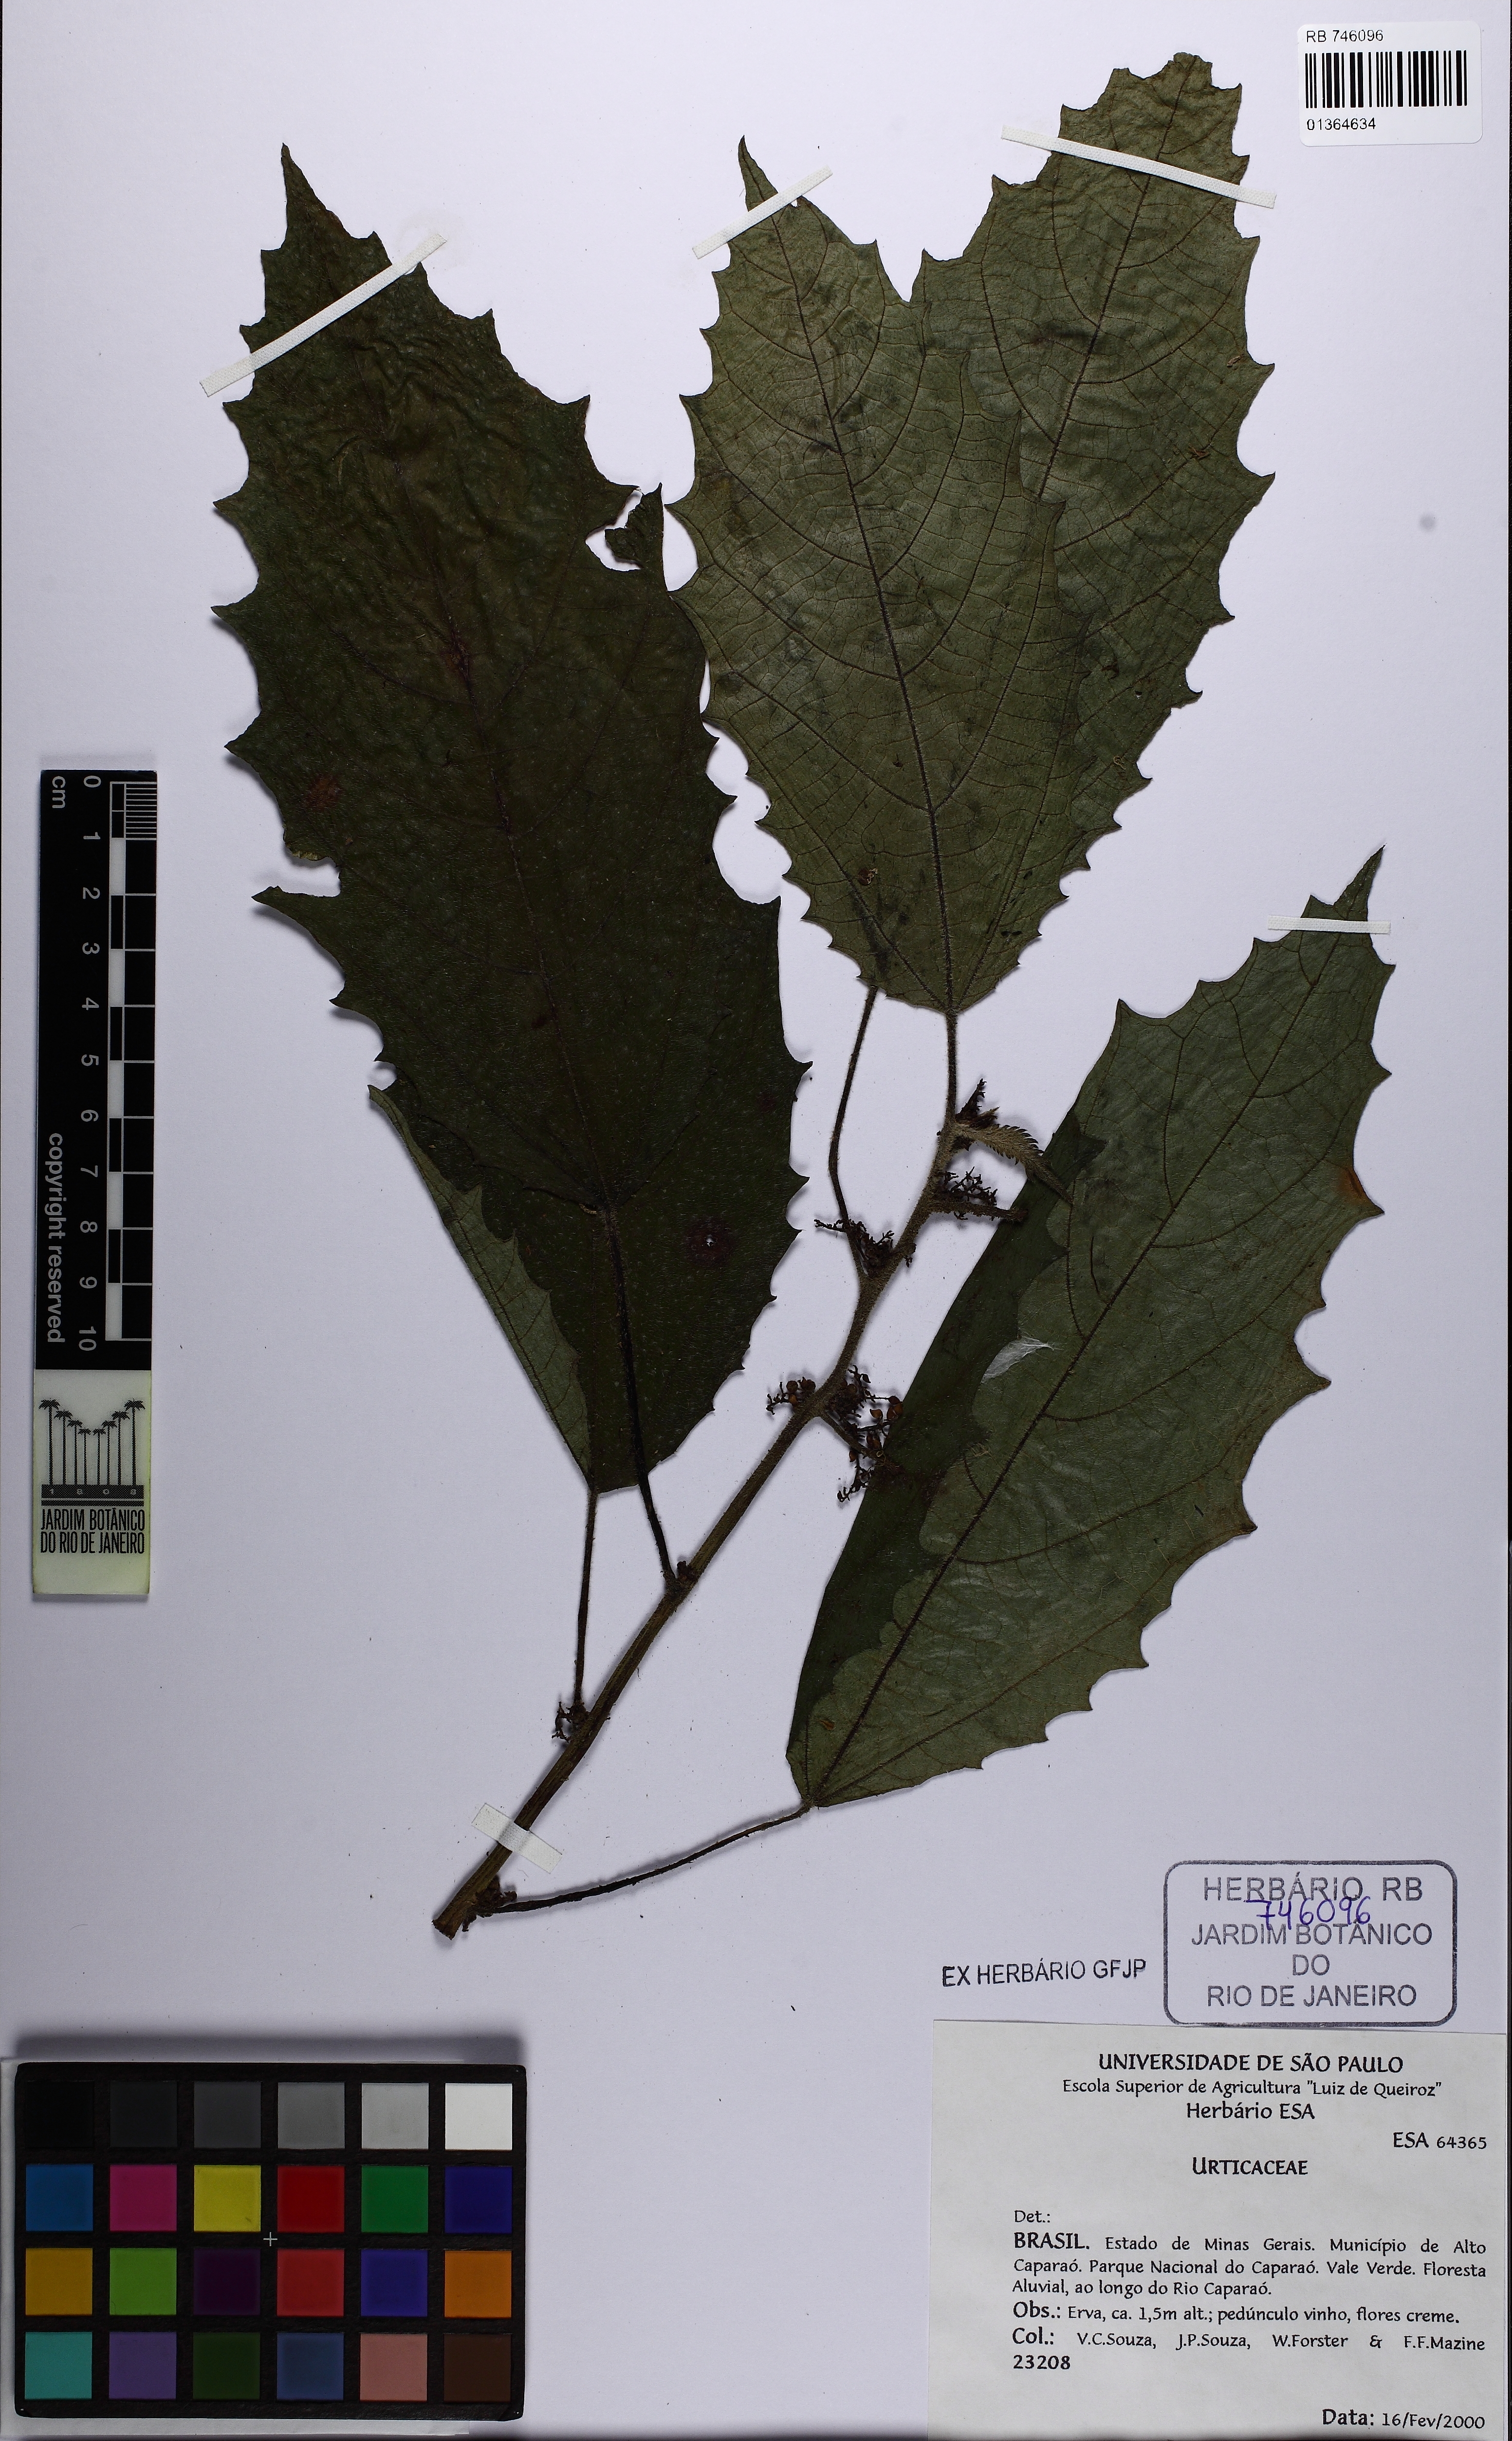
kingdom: Plantae
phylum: Tracheophyta
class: Magnoliopsida
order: Rosales
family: Urticaceae
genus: Urera
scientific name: Urera nitida
